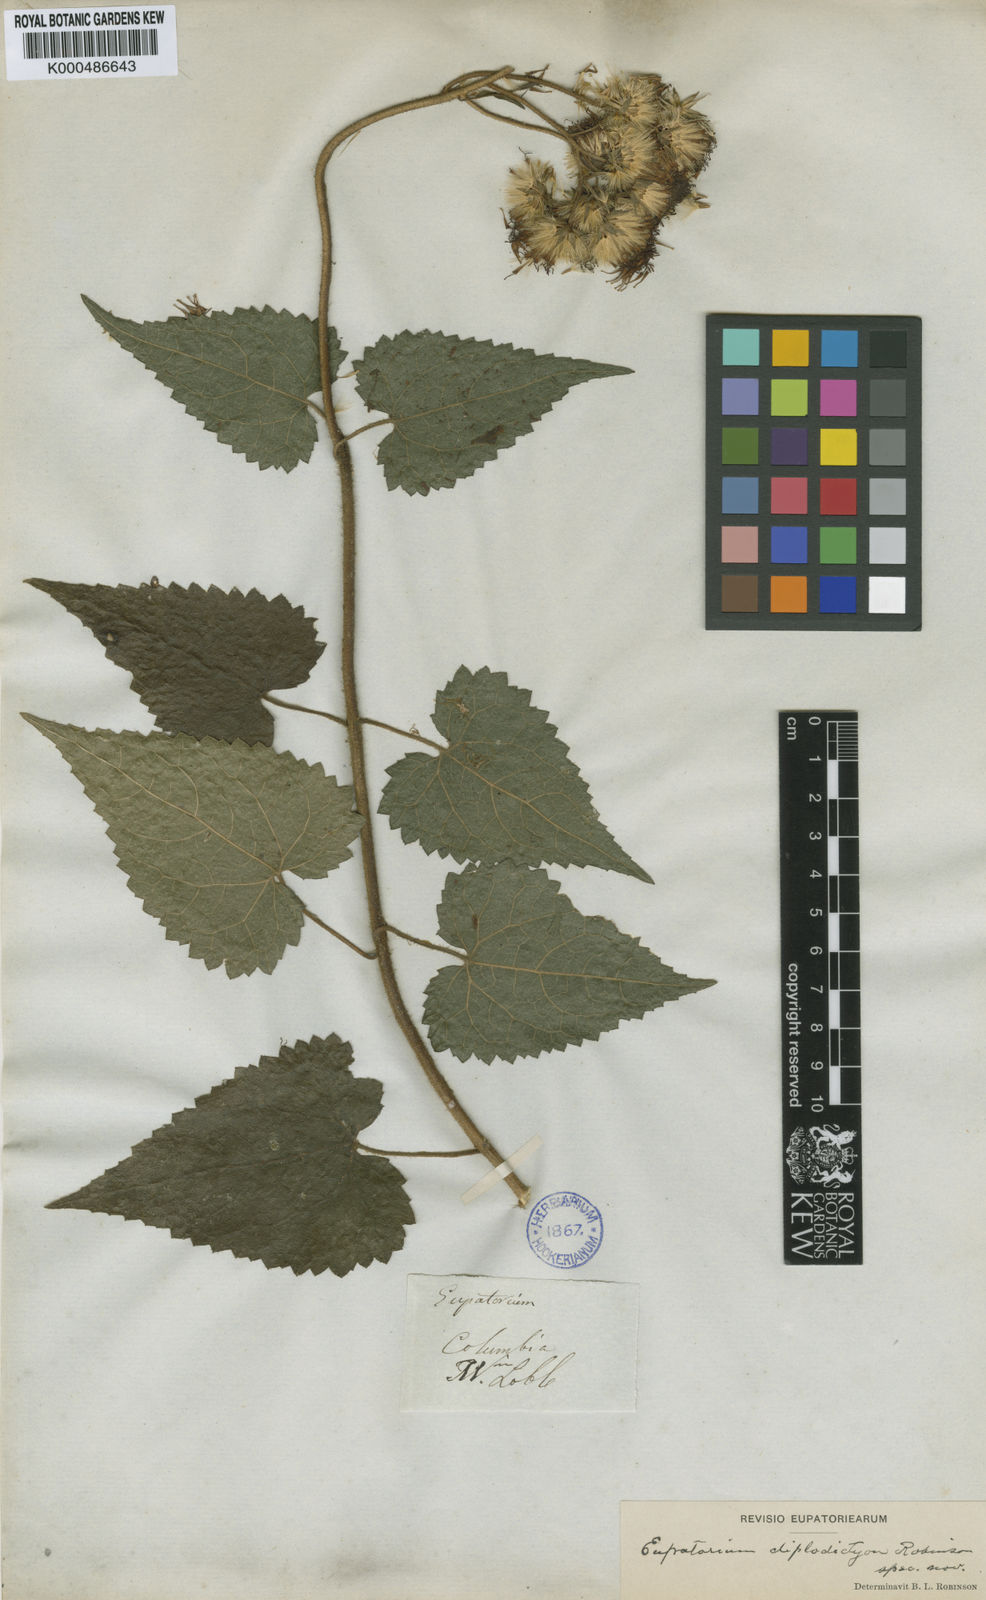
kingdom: Plantae
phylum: Tracheophyta
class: Magnoliopsida
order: Asterales
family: Asteraceae
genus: Aristeguietia
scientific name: Aristeguietia diplodictyon
